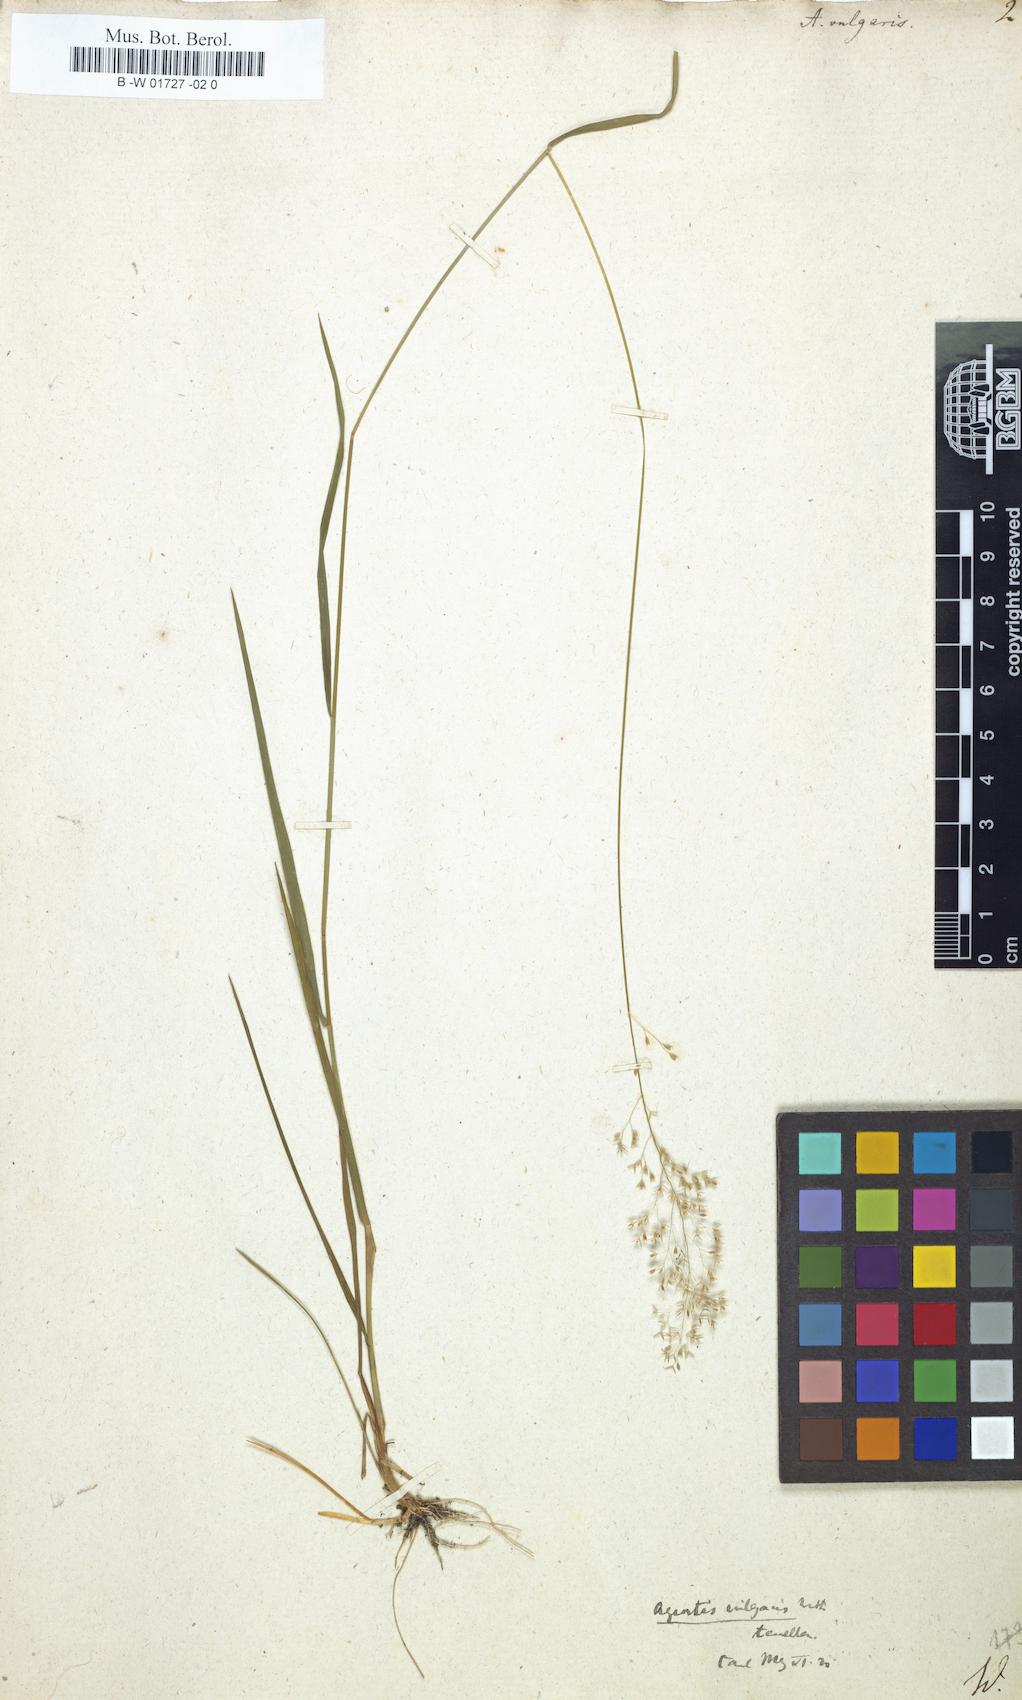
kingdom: Plantae
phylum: Tracheophyta
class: Liliopsida
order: Poales
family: Poaceae
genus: Agrostis
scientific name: Agrostis capillaris
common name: Colonial bentgrass
